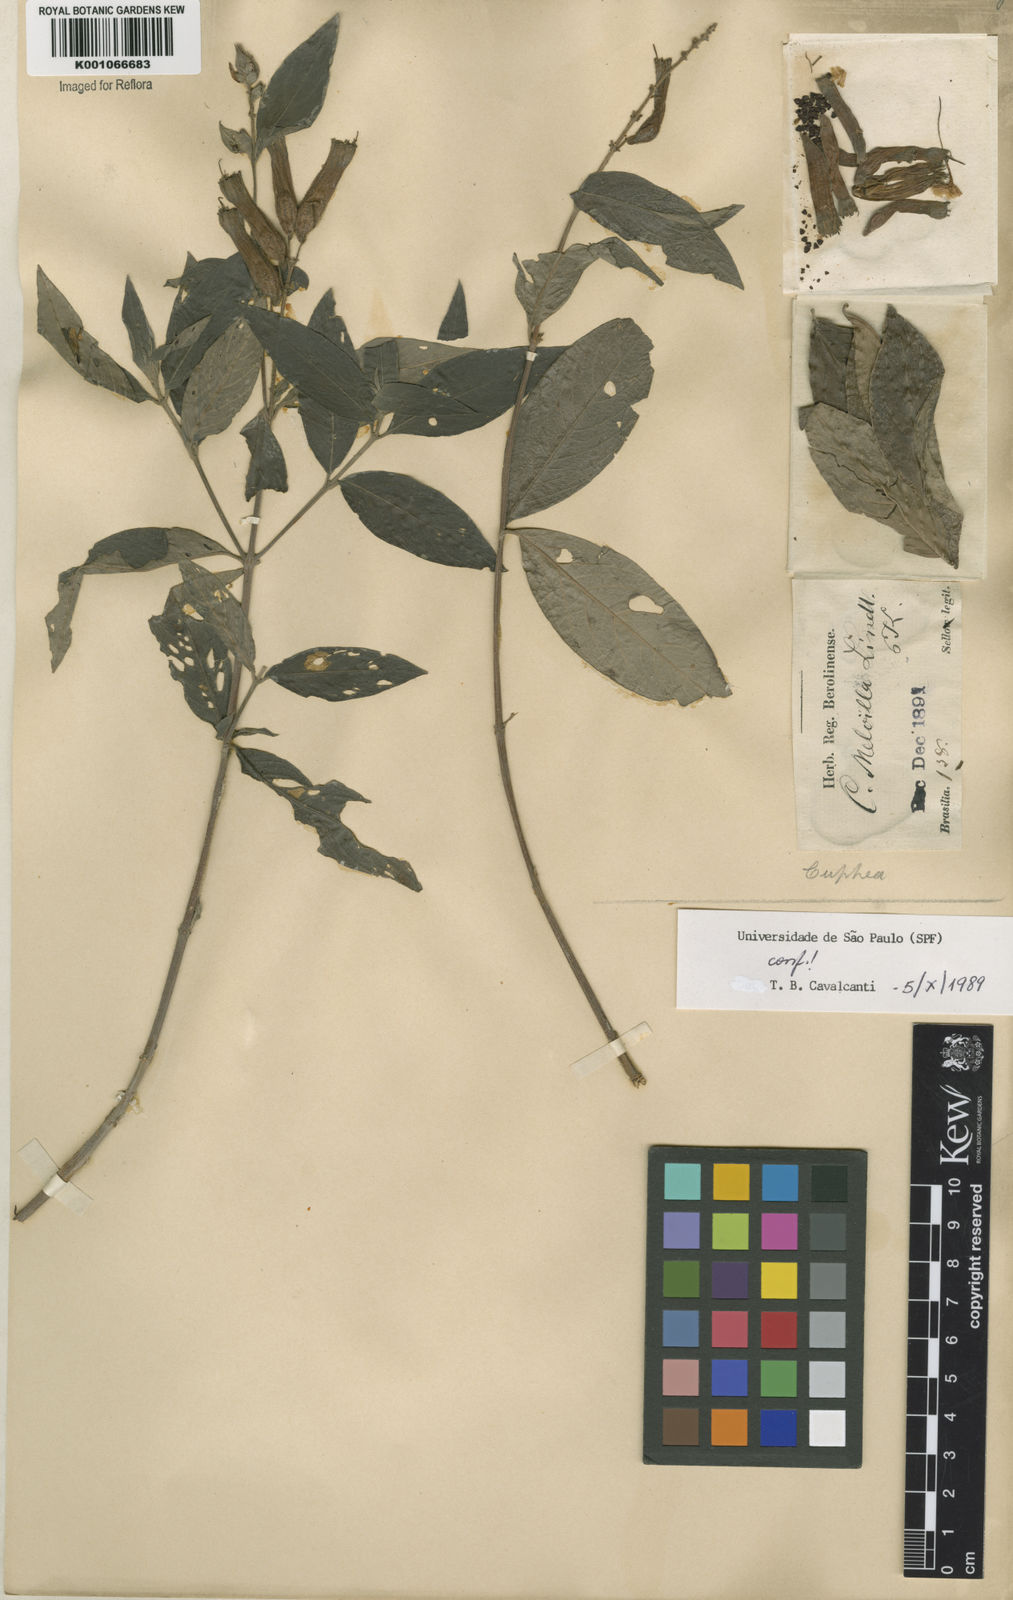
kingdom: Plantae
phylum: Tracheophyta
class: Magnoliopsida
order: Myrtales
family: Lythraceae
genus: Cuphea
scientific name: Cuphea melvilla
